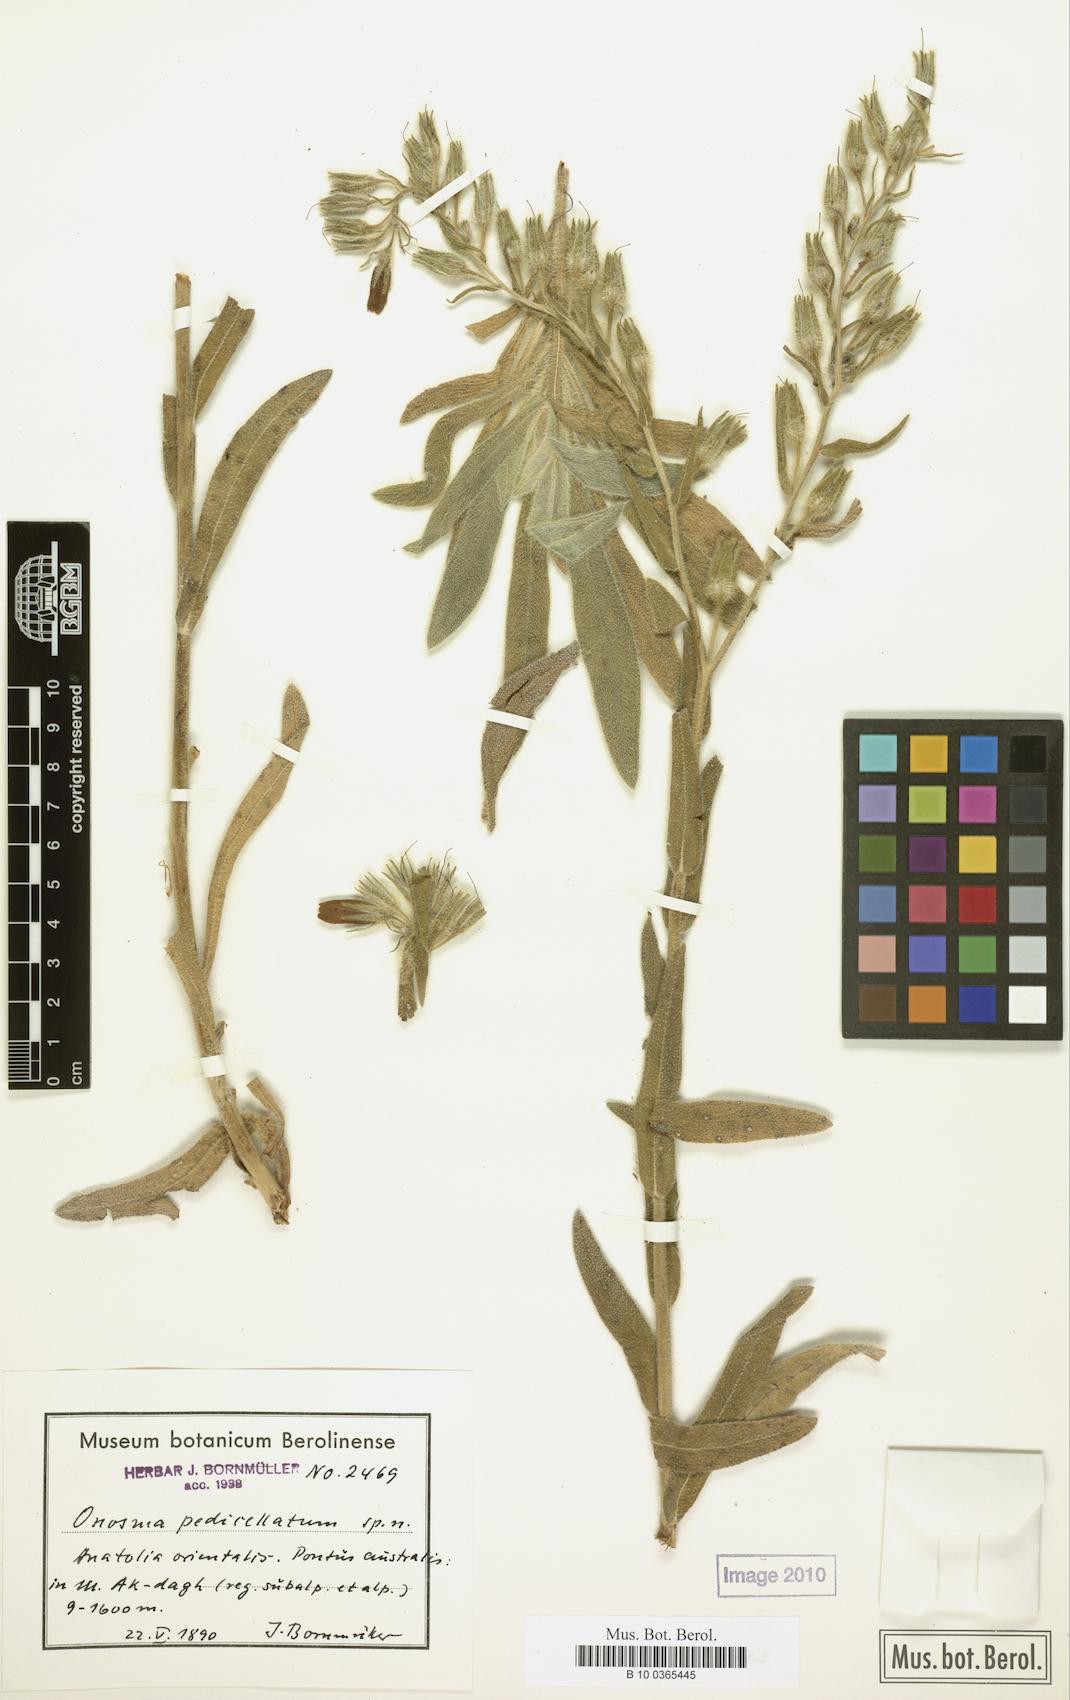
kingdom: Plantae
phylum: Tracheophyta
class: Magnoliopsida
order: Boraginales
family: Boraginaceae
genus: Onosma
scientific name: Onosma
